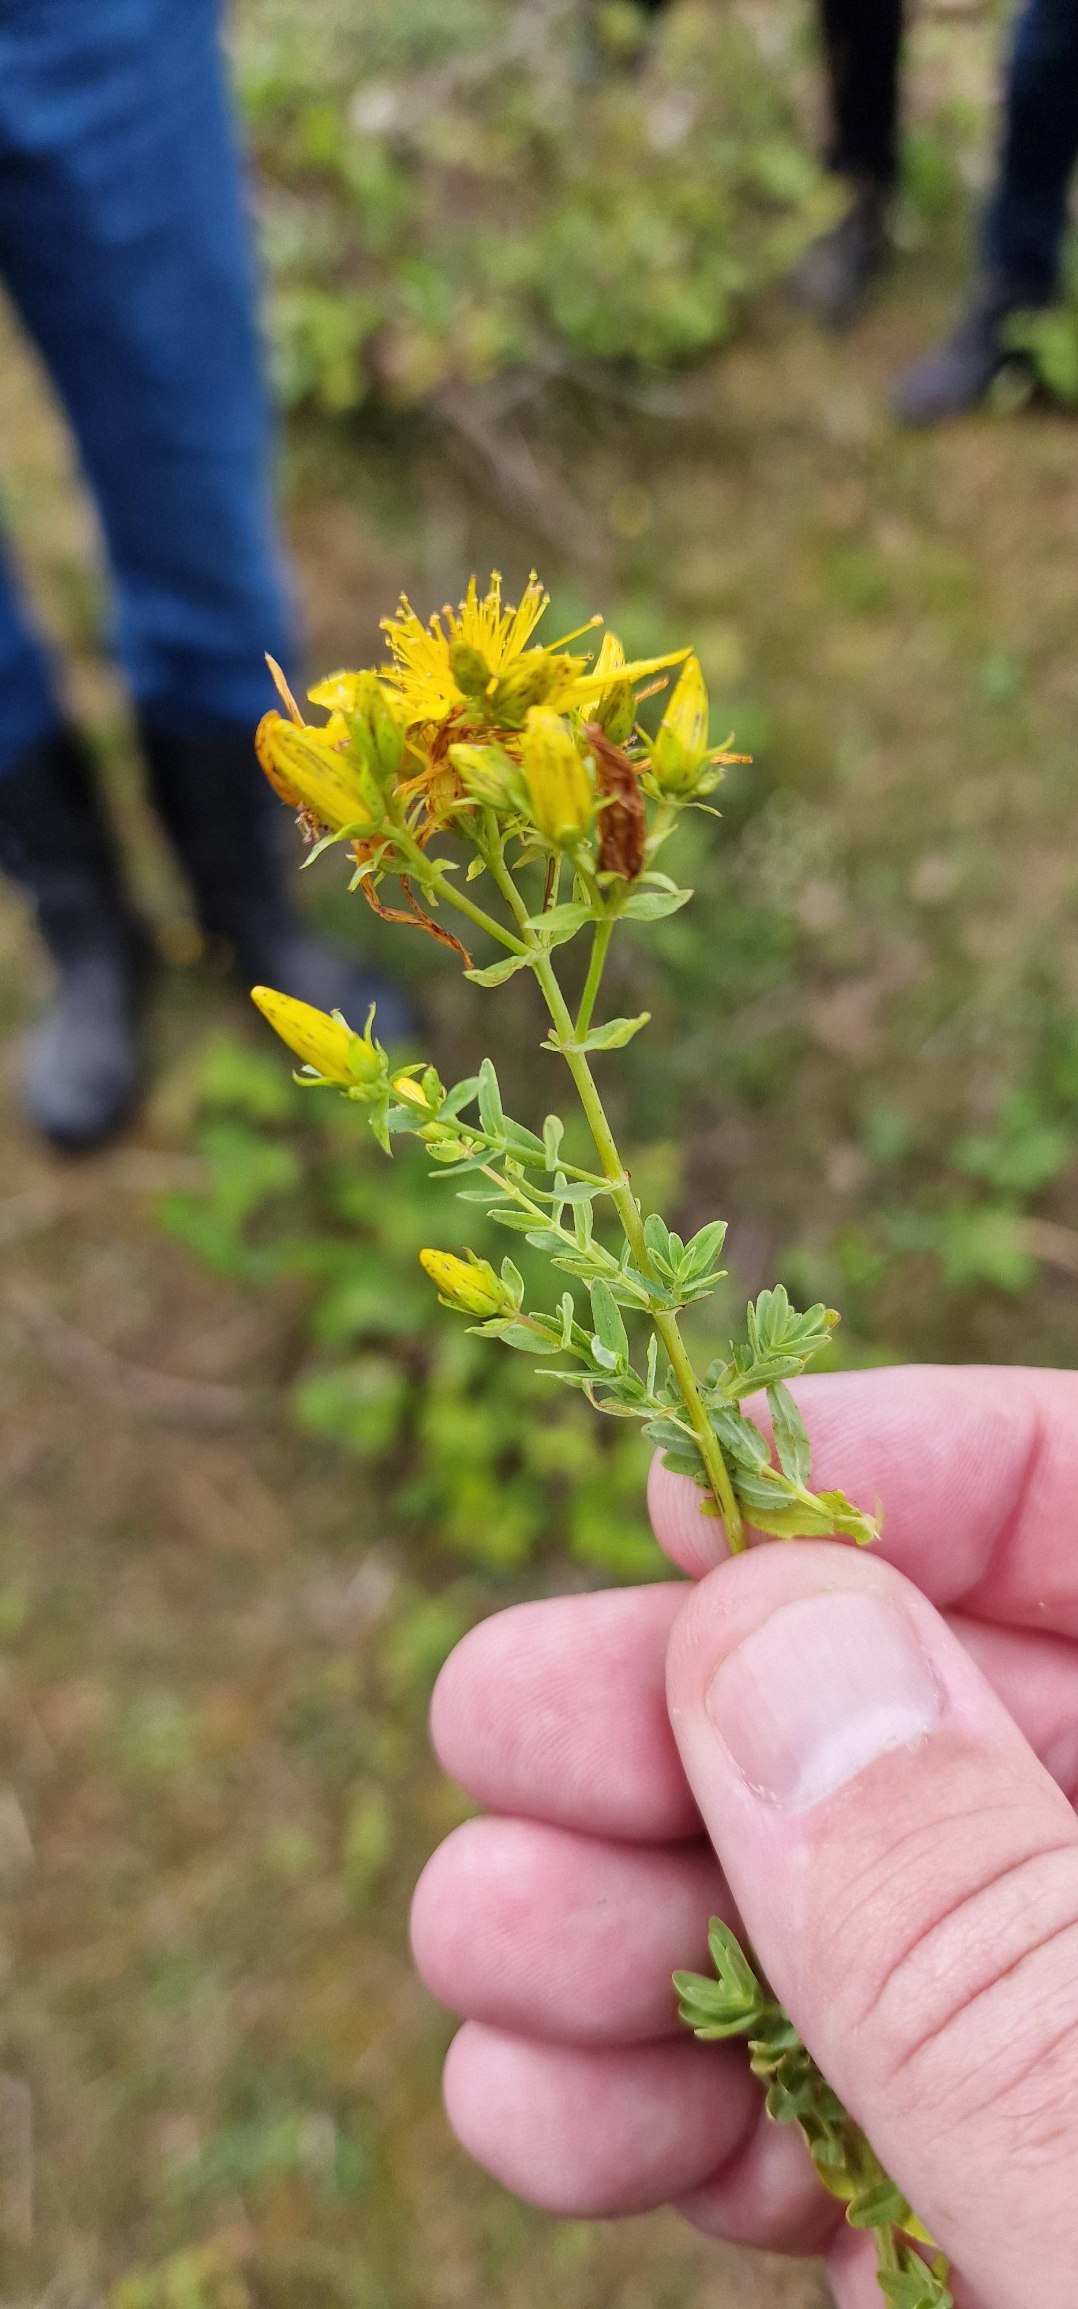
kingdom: Plantae
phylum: Tracheophyta
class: Magnoliopsida
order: Malpighiales
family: Hypericaceae
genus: Hypericum
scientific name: Hypericum perforatum
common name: Prikbladet perikon
